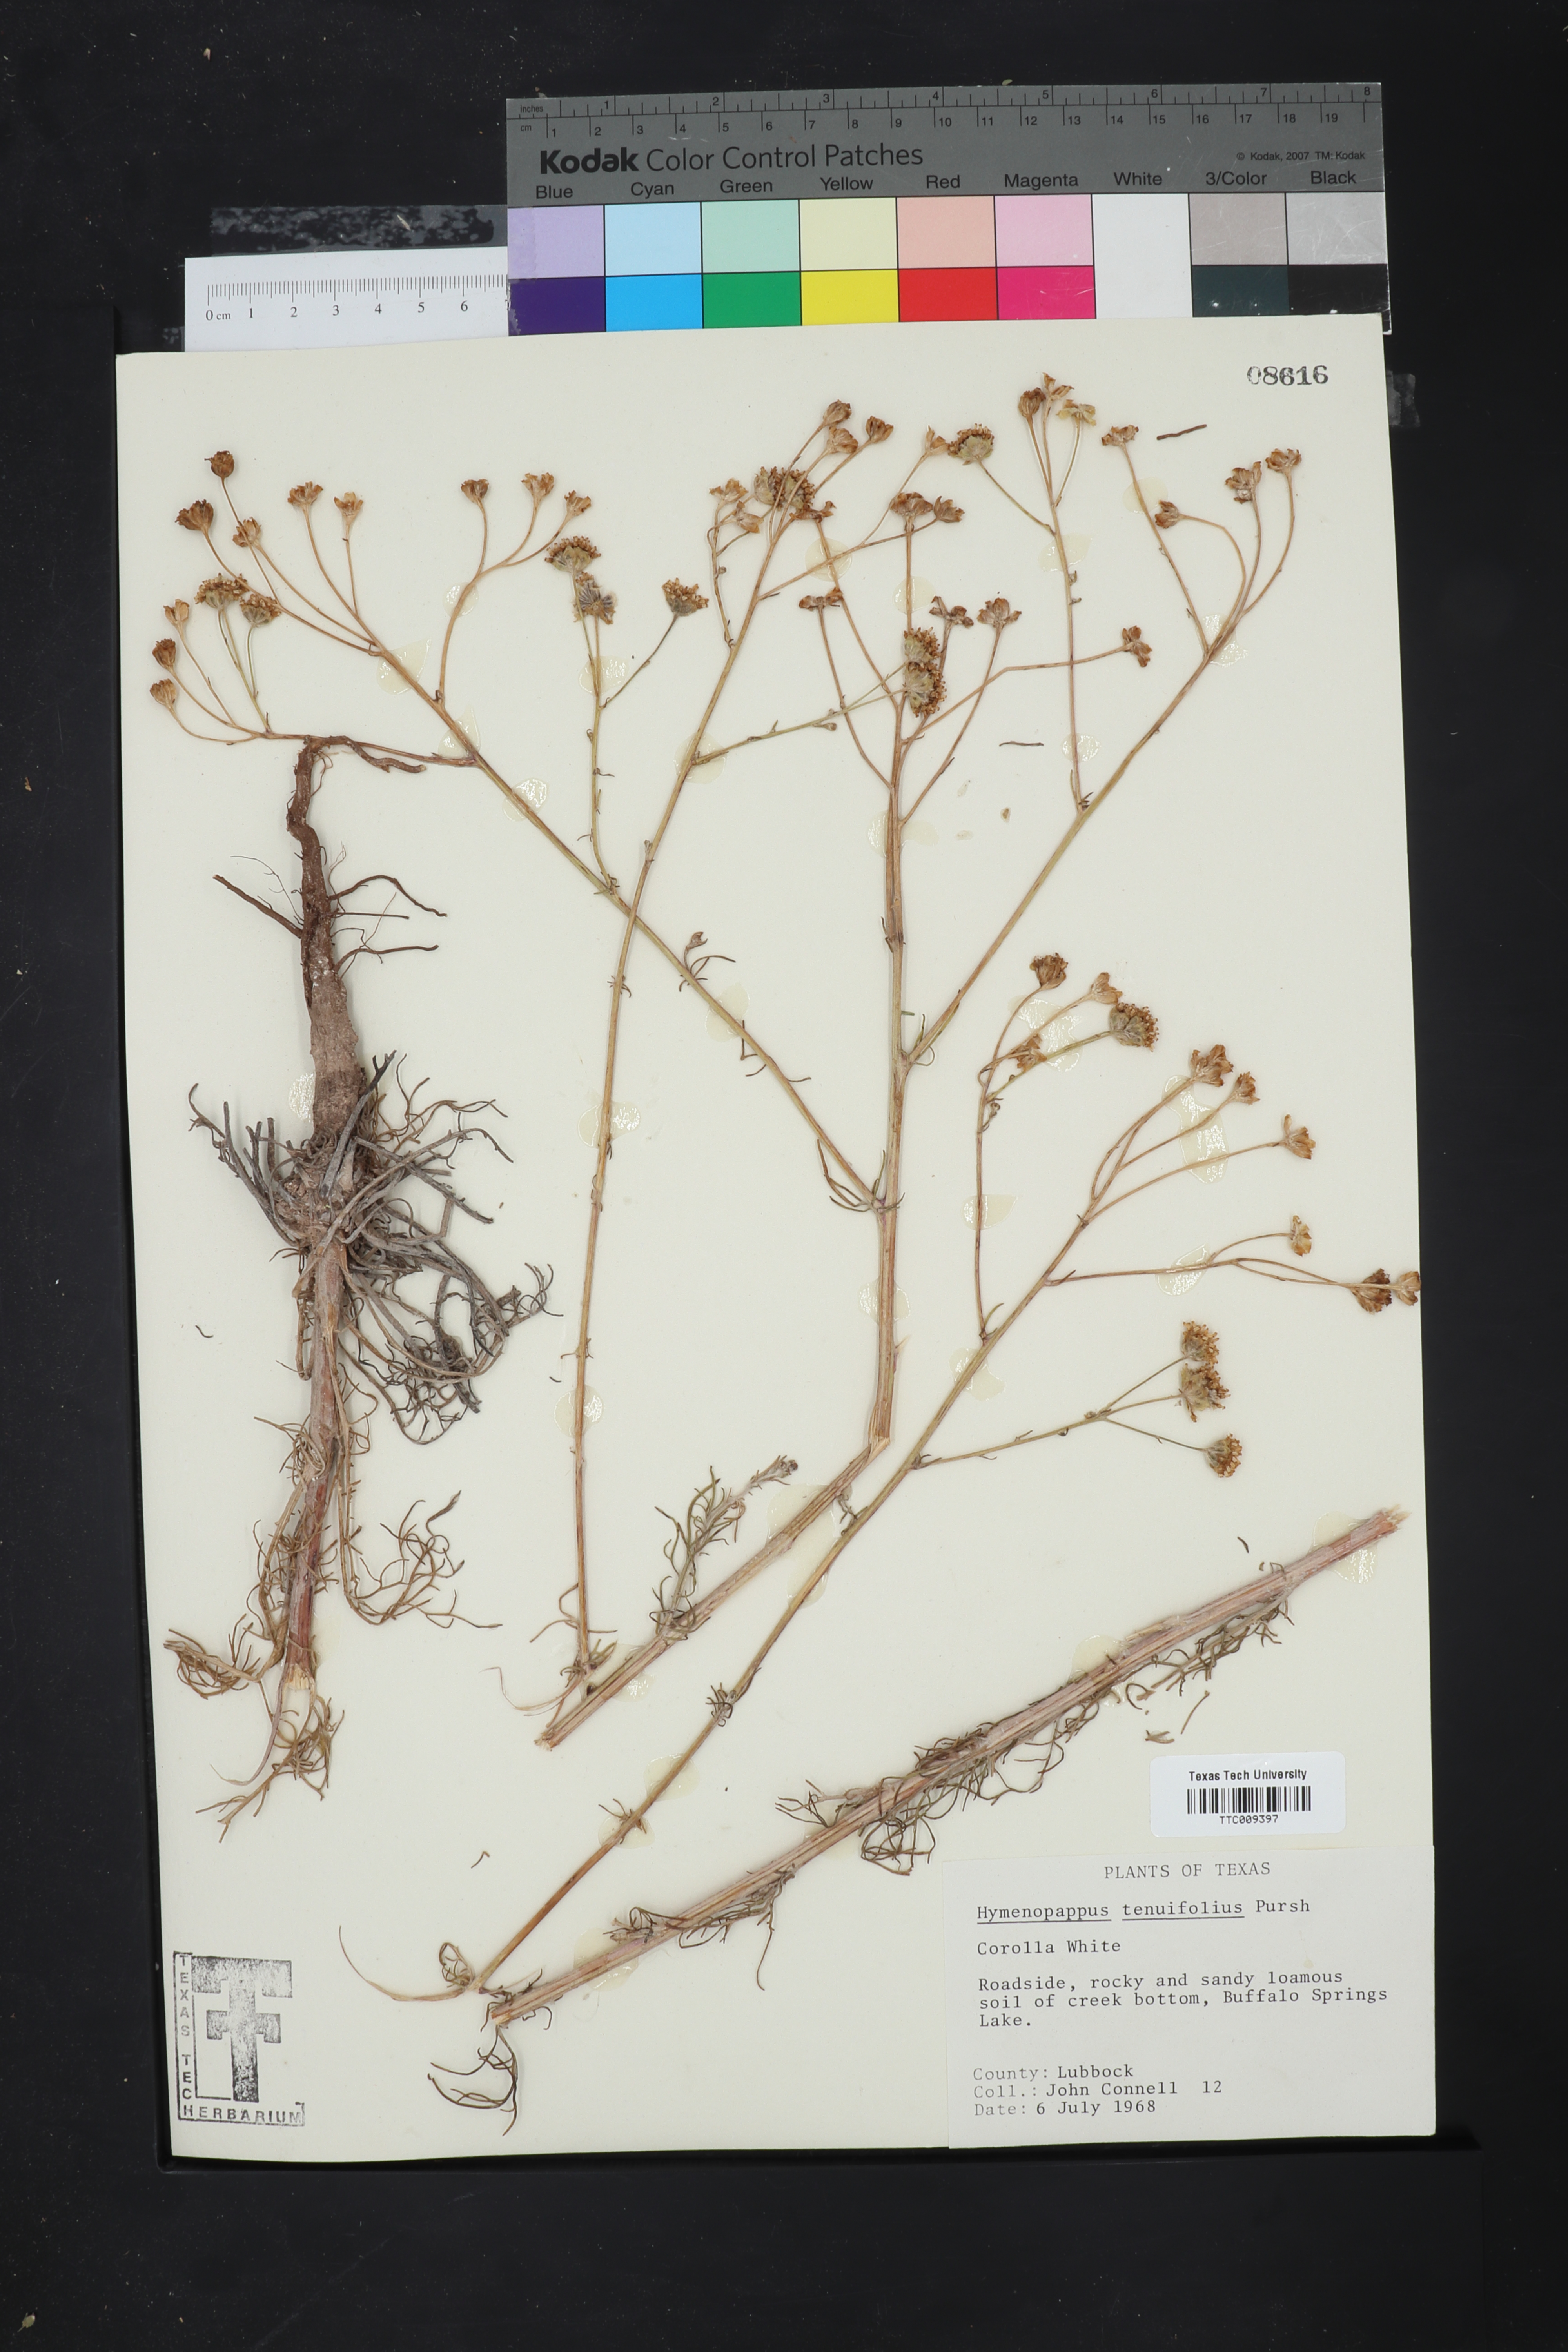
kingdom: Plantae
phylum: Tracheophyta
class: Magnoliopsida
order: Asterales
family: Asteraceae
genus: Hymenopappus
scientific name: Hymenopappus tenuifolius
